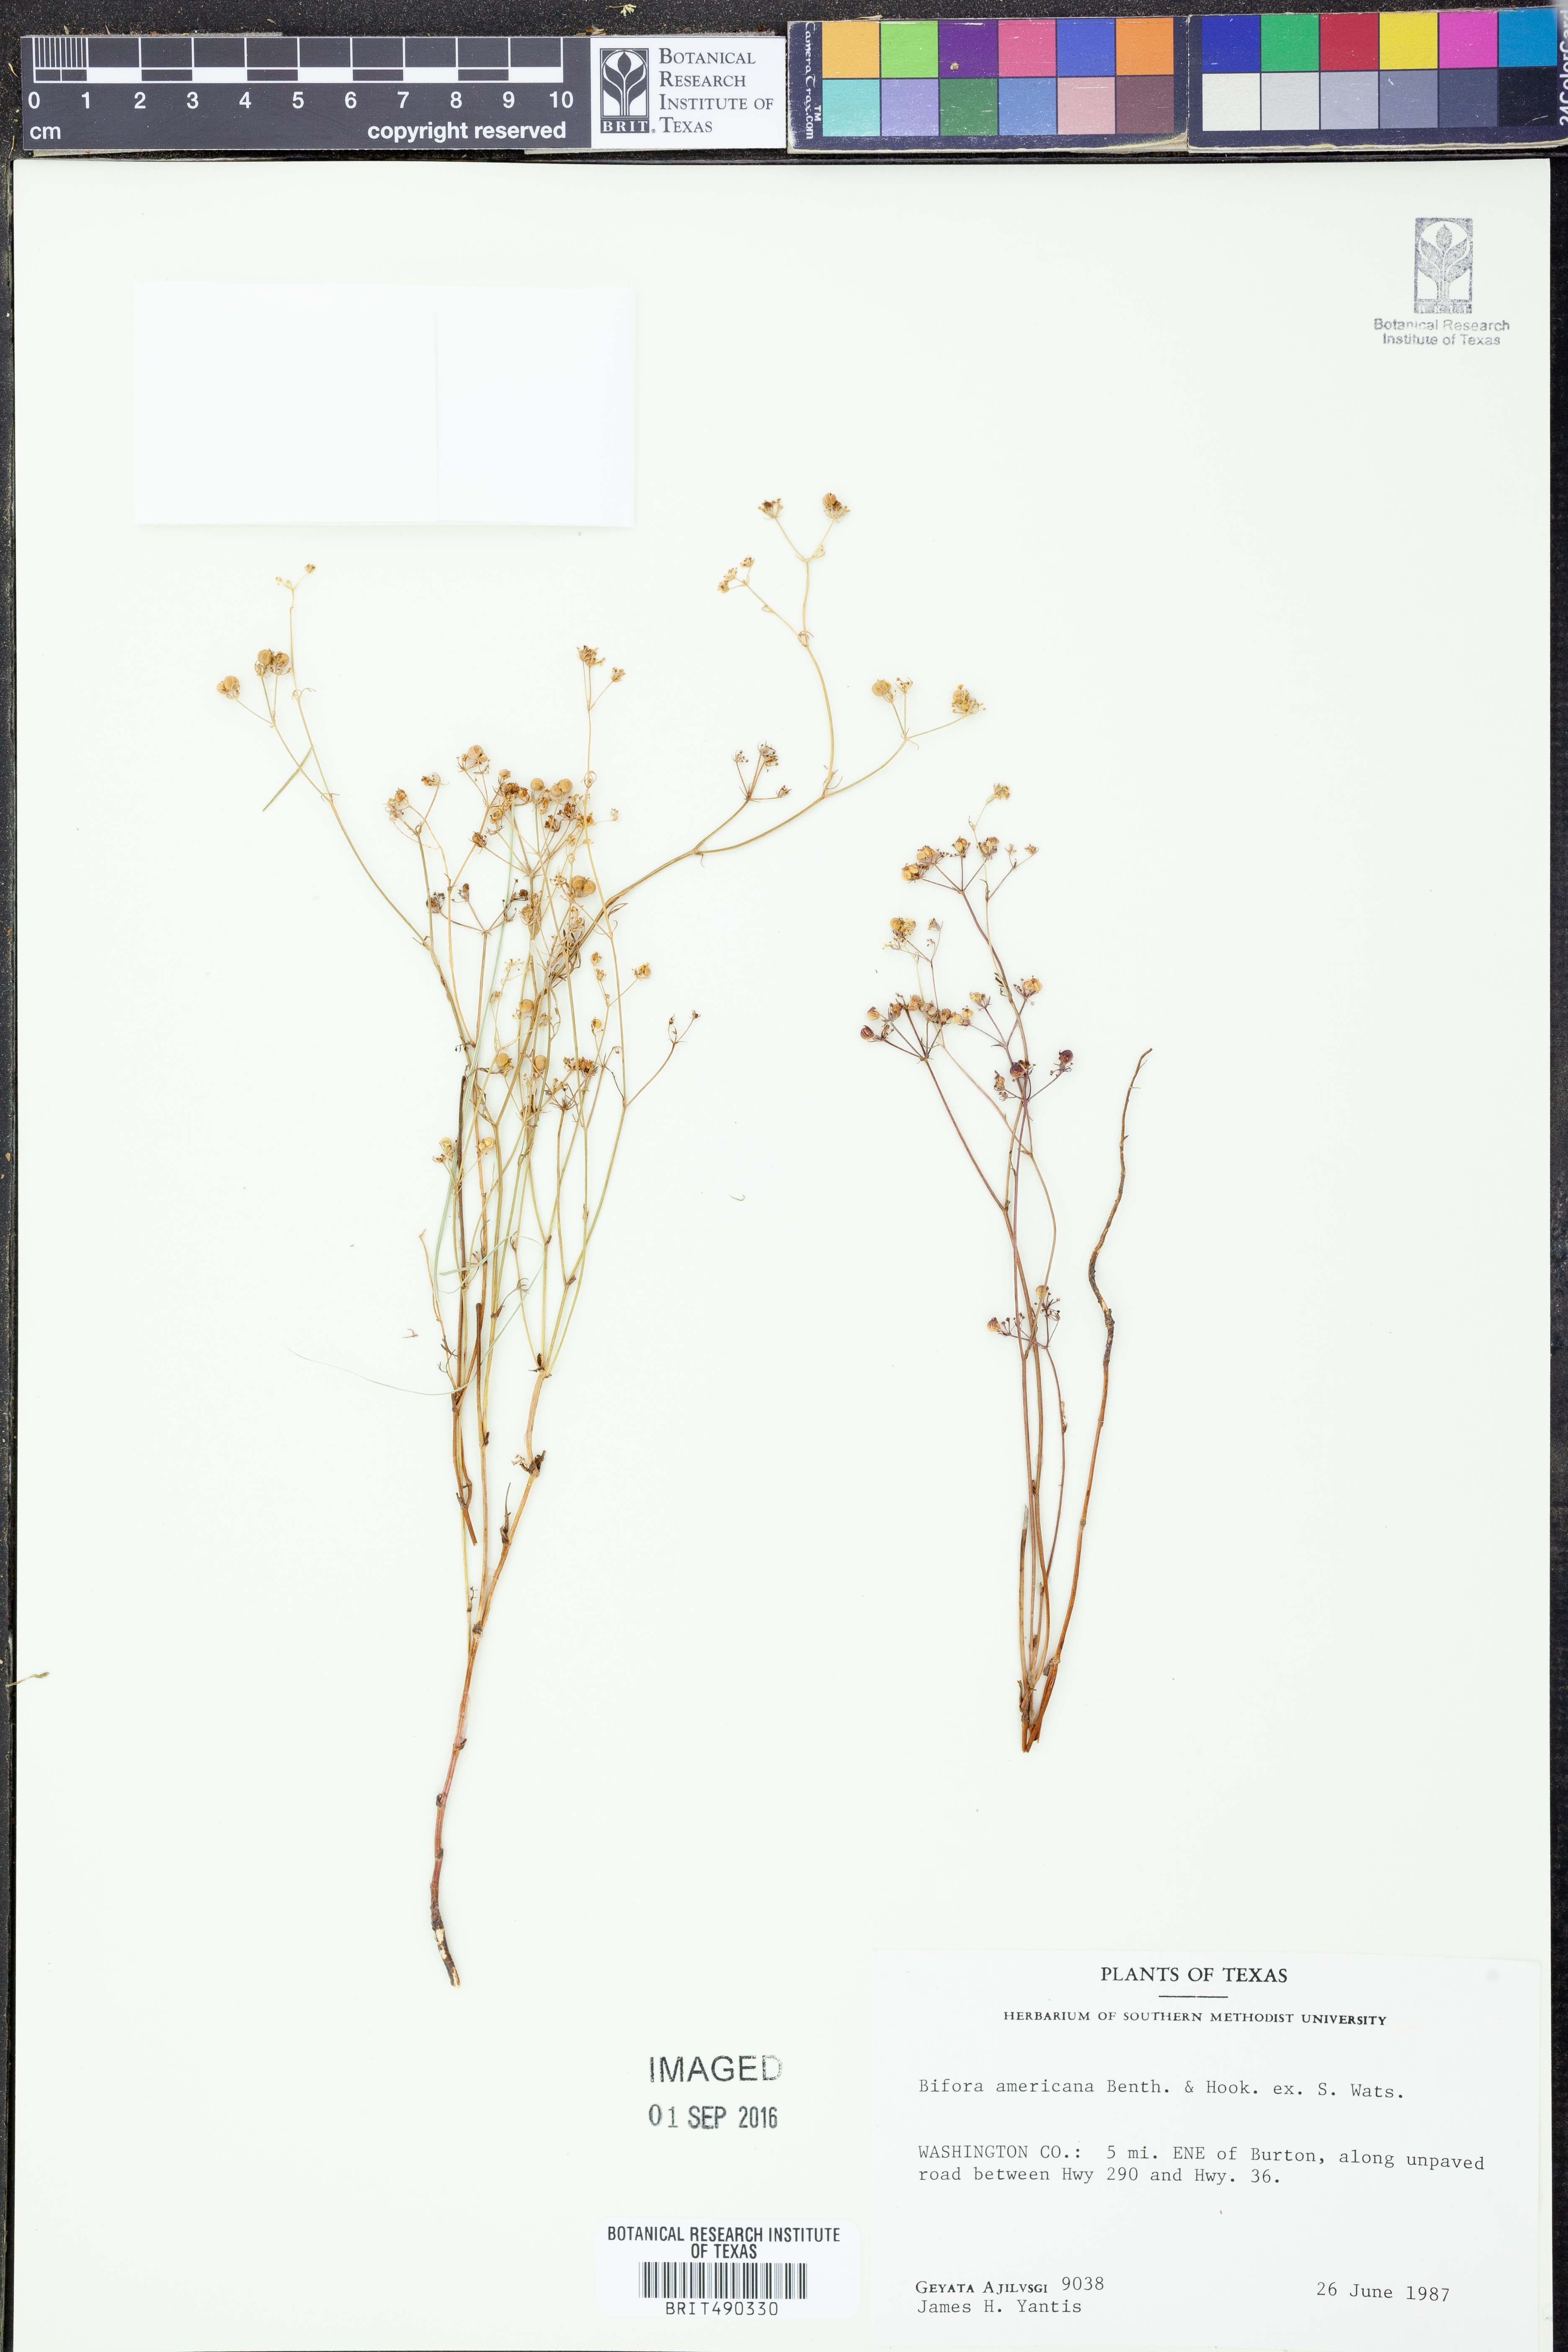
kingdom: Plantae
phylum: Tracheophyta
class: Magnoliopsida
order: Apiales
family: Apiaceae
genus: Atrema
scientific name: Atrema americanum
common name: Prairie-bishop
